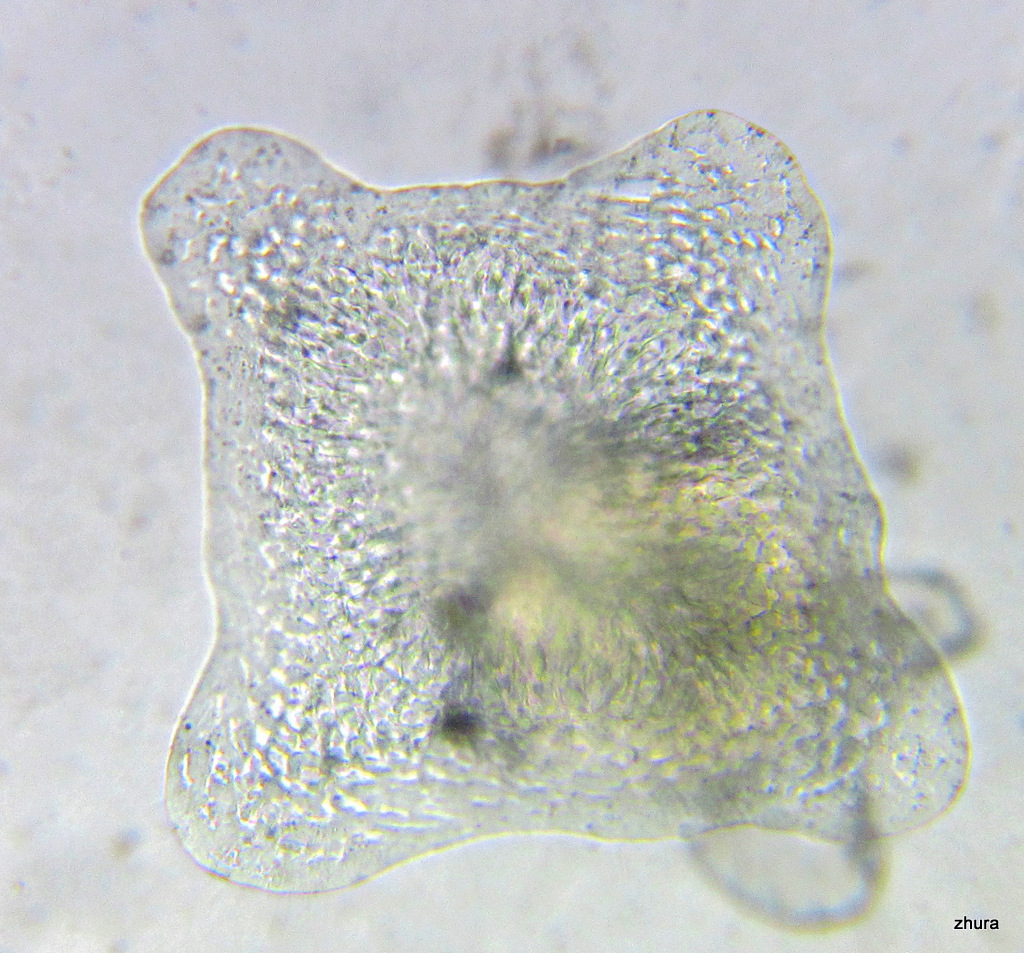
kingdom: Animalia
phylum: Cnidaria
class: Hydrozoa
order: Leptothecata
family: Campanulariidae
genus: Obelia
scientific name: Obelia longissima
